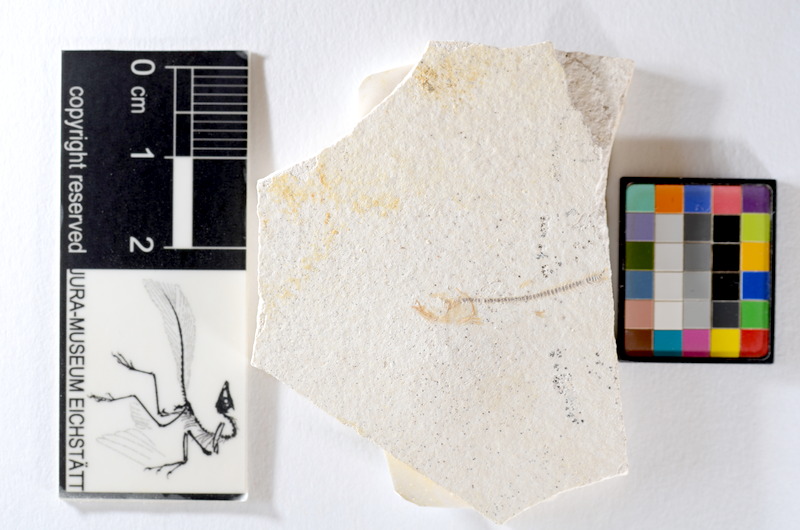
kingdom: Animalia
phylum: Chordata
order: Salmoniformes
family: Orthogonikleithridae
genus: Orthogonikleithrus
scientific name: Orthogonikleithrus hoelli
